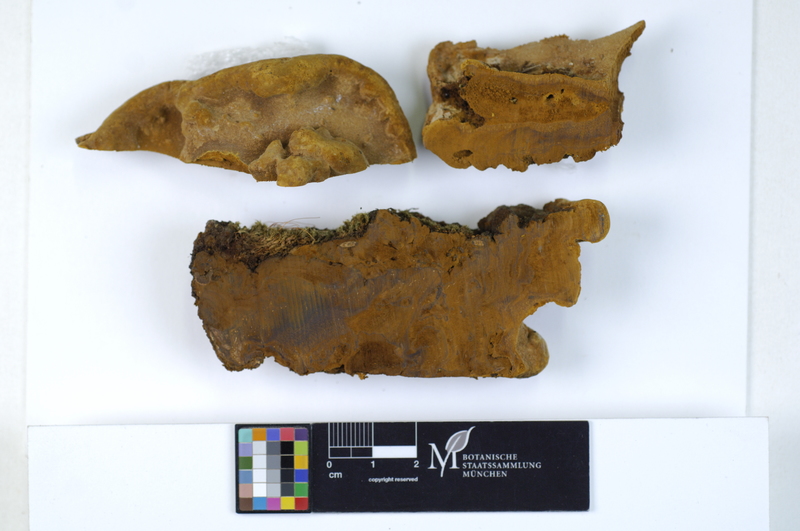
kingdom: Plantae
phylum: Tracheophyta
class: Magnoliopsida
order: Fabales
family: Fabaceae
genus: Ceratonia
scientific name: Ceratonia siliqua
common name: Carob
